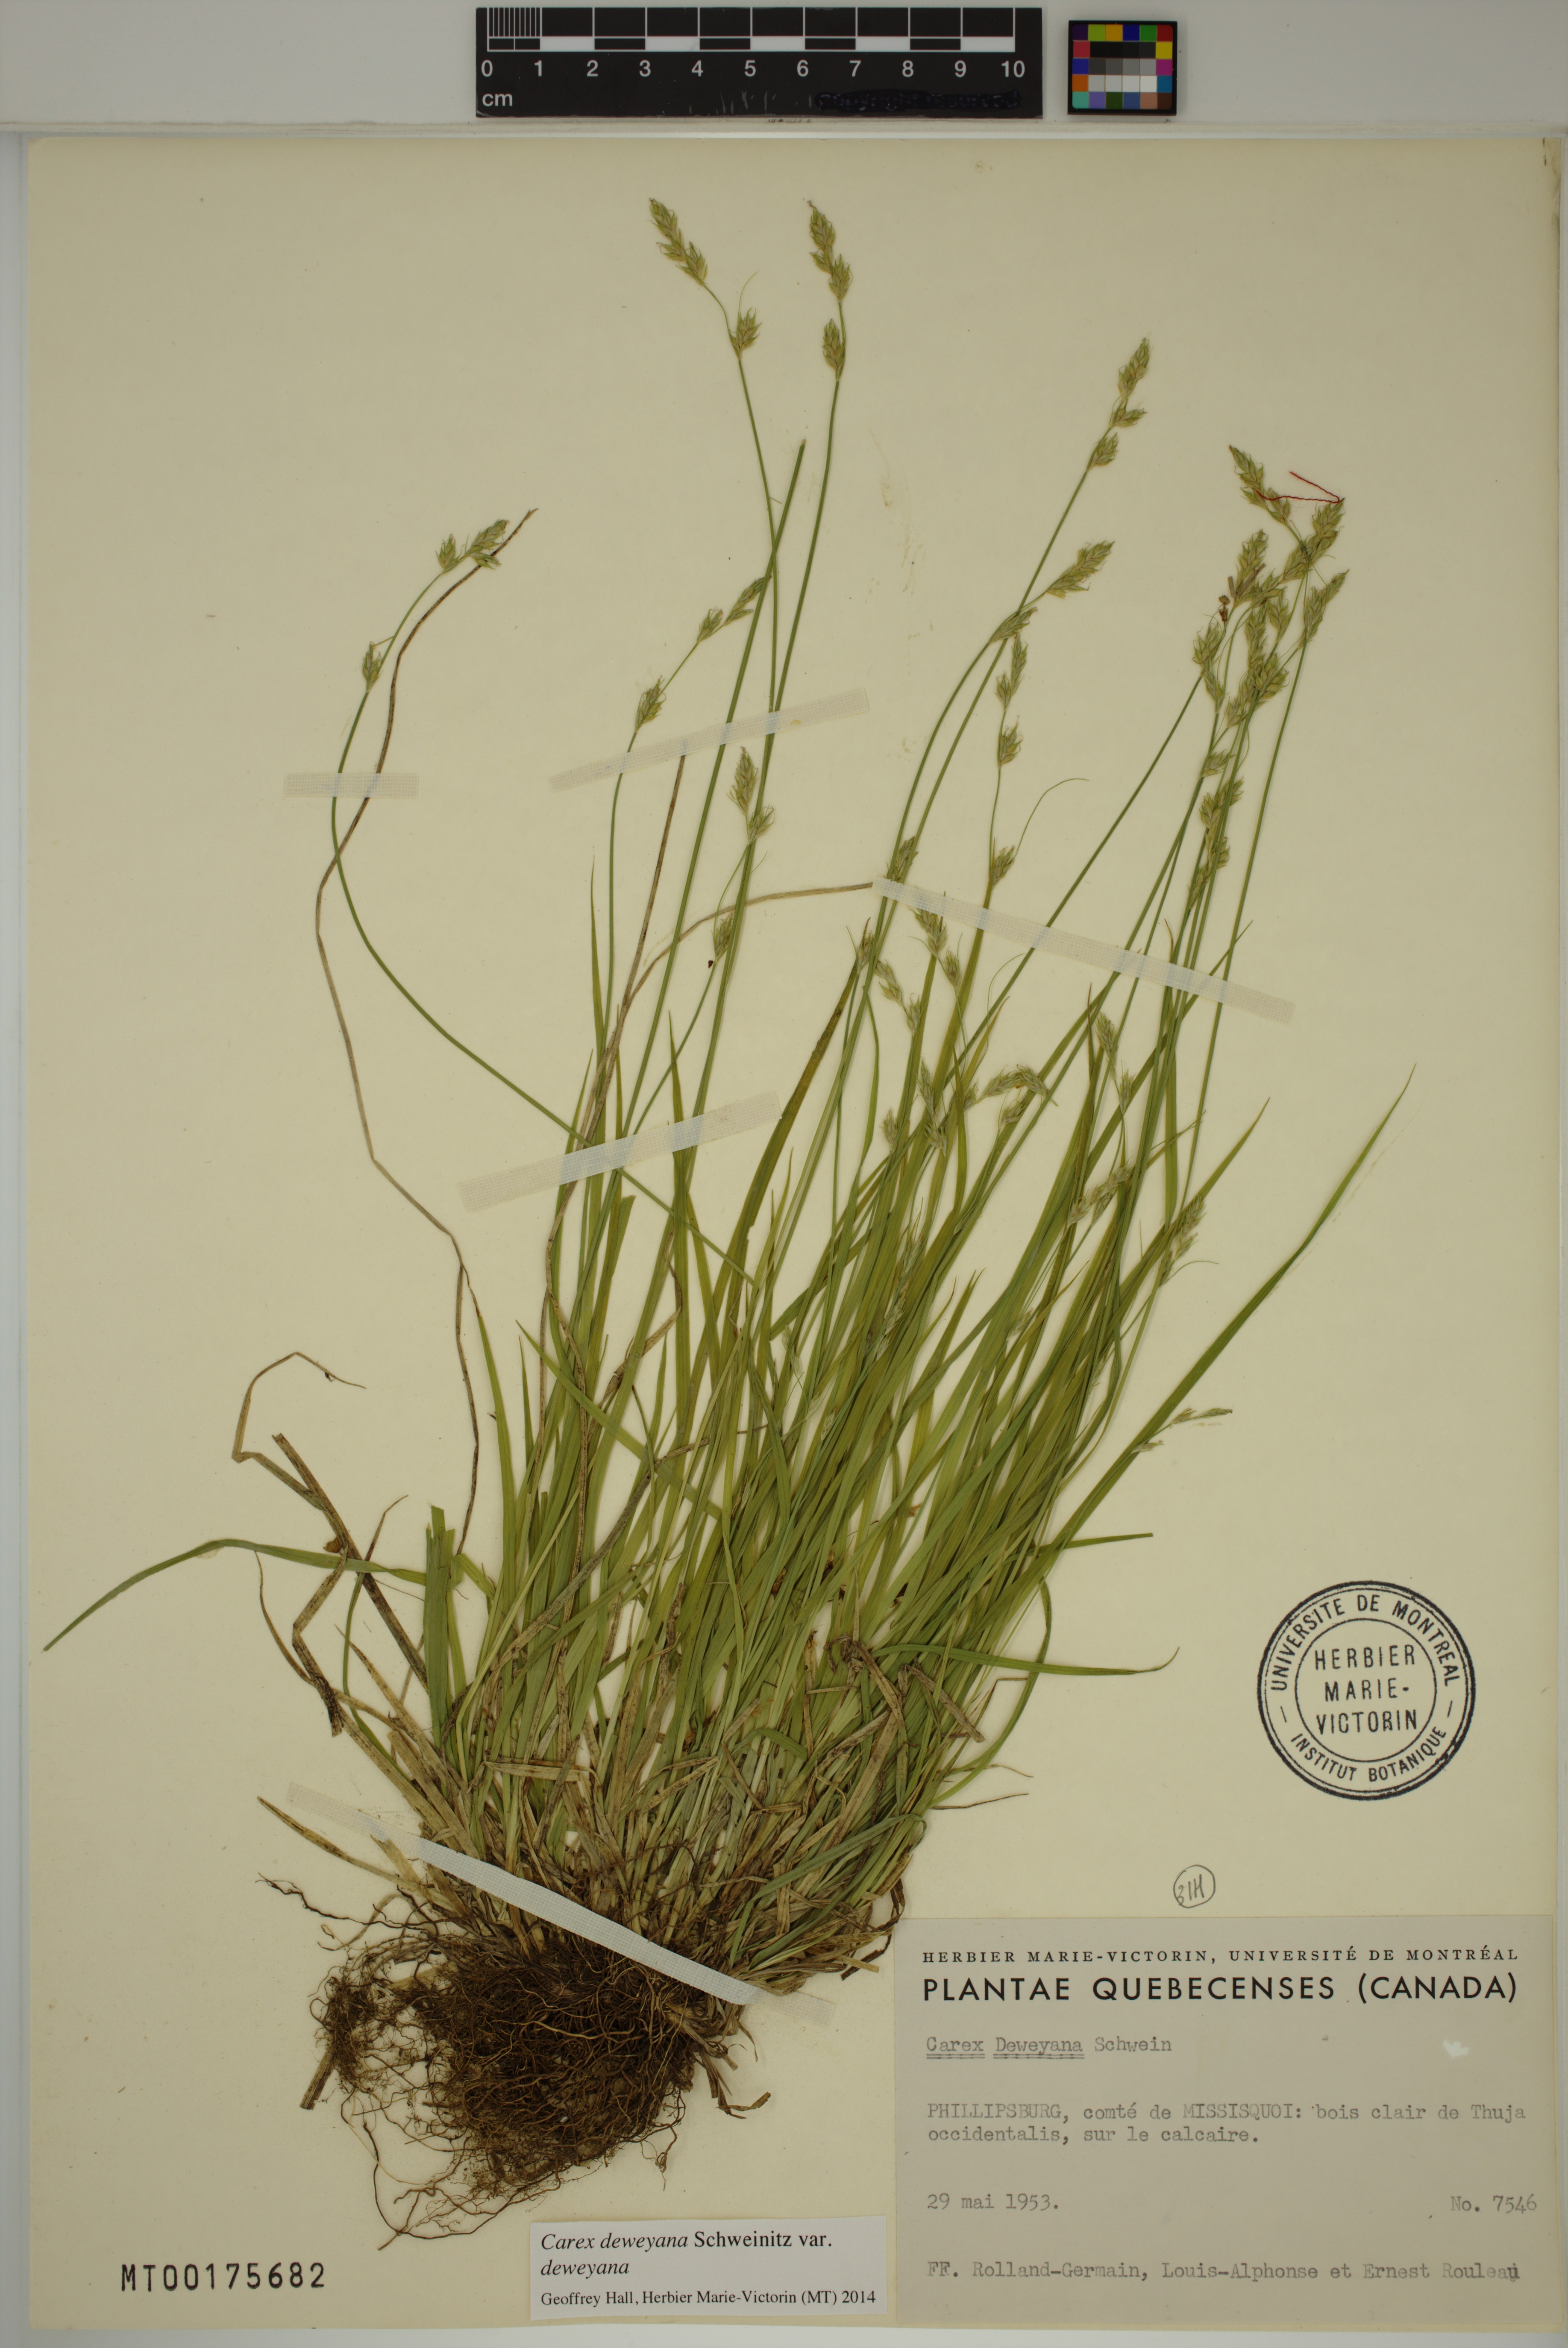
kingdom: Plantae
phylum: Tracheophyta
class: Liliopsida
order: Poales
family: Cyperaceae
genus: Carex
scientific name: Carex deweyana
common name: Dewey's sedge
